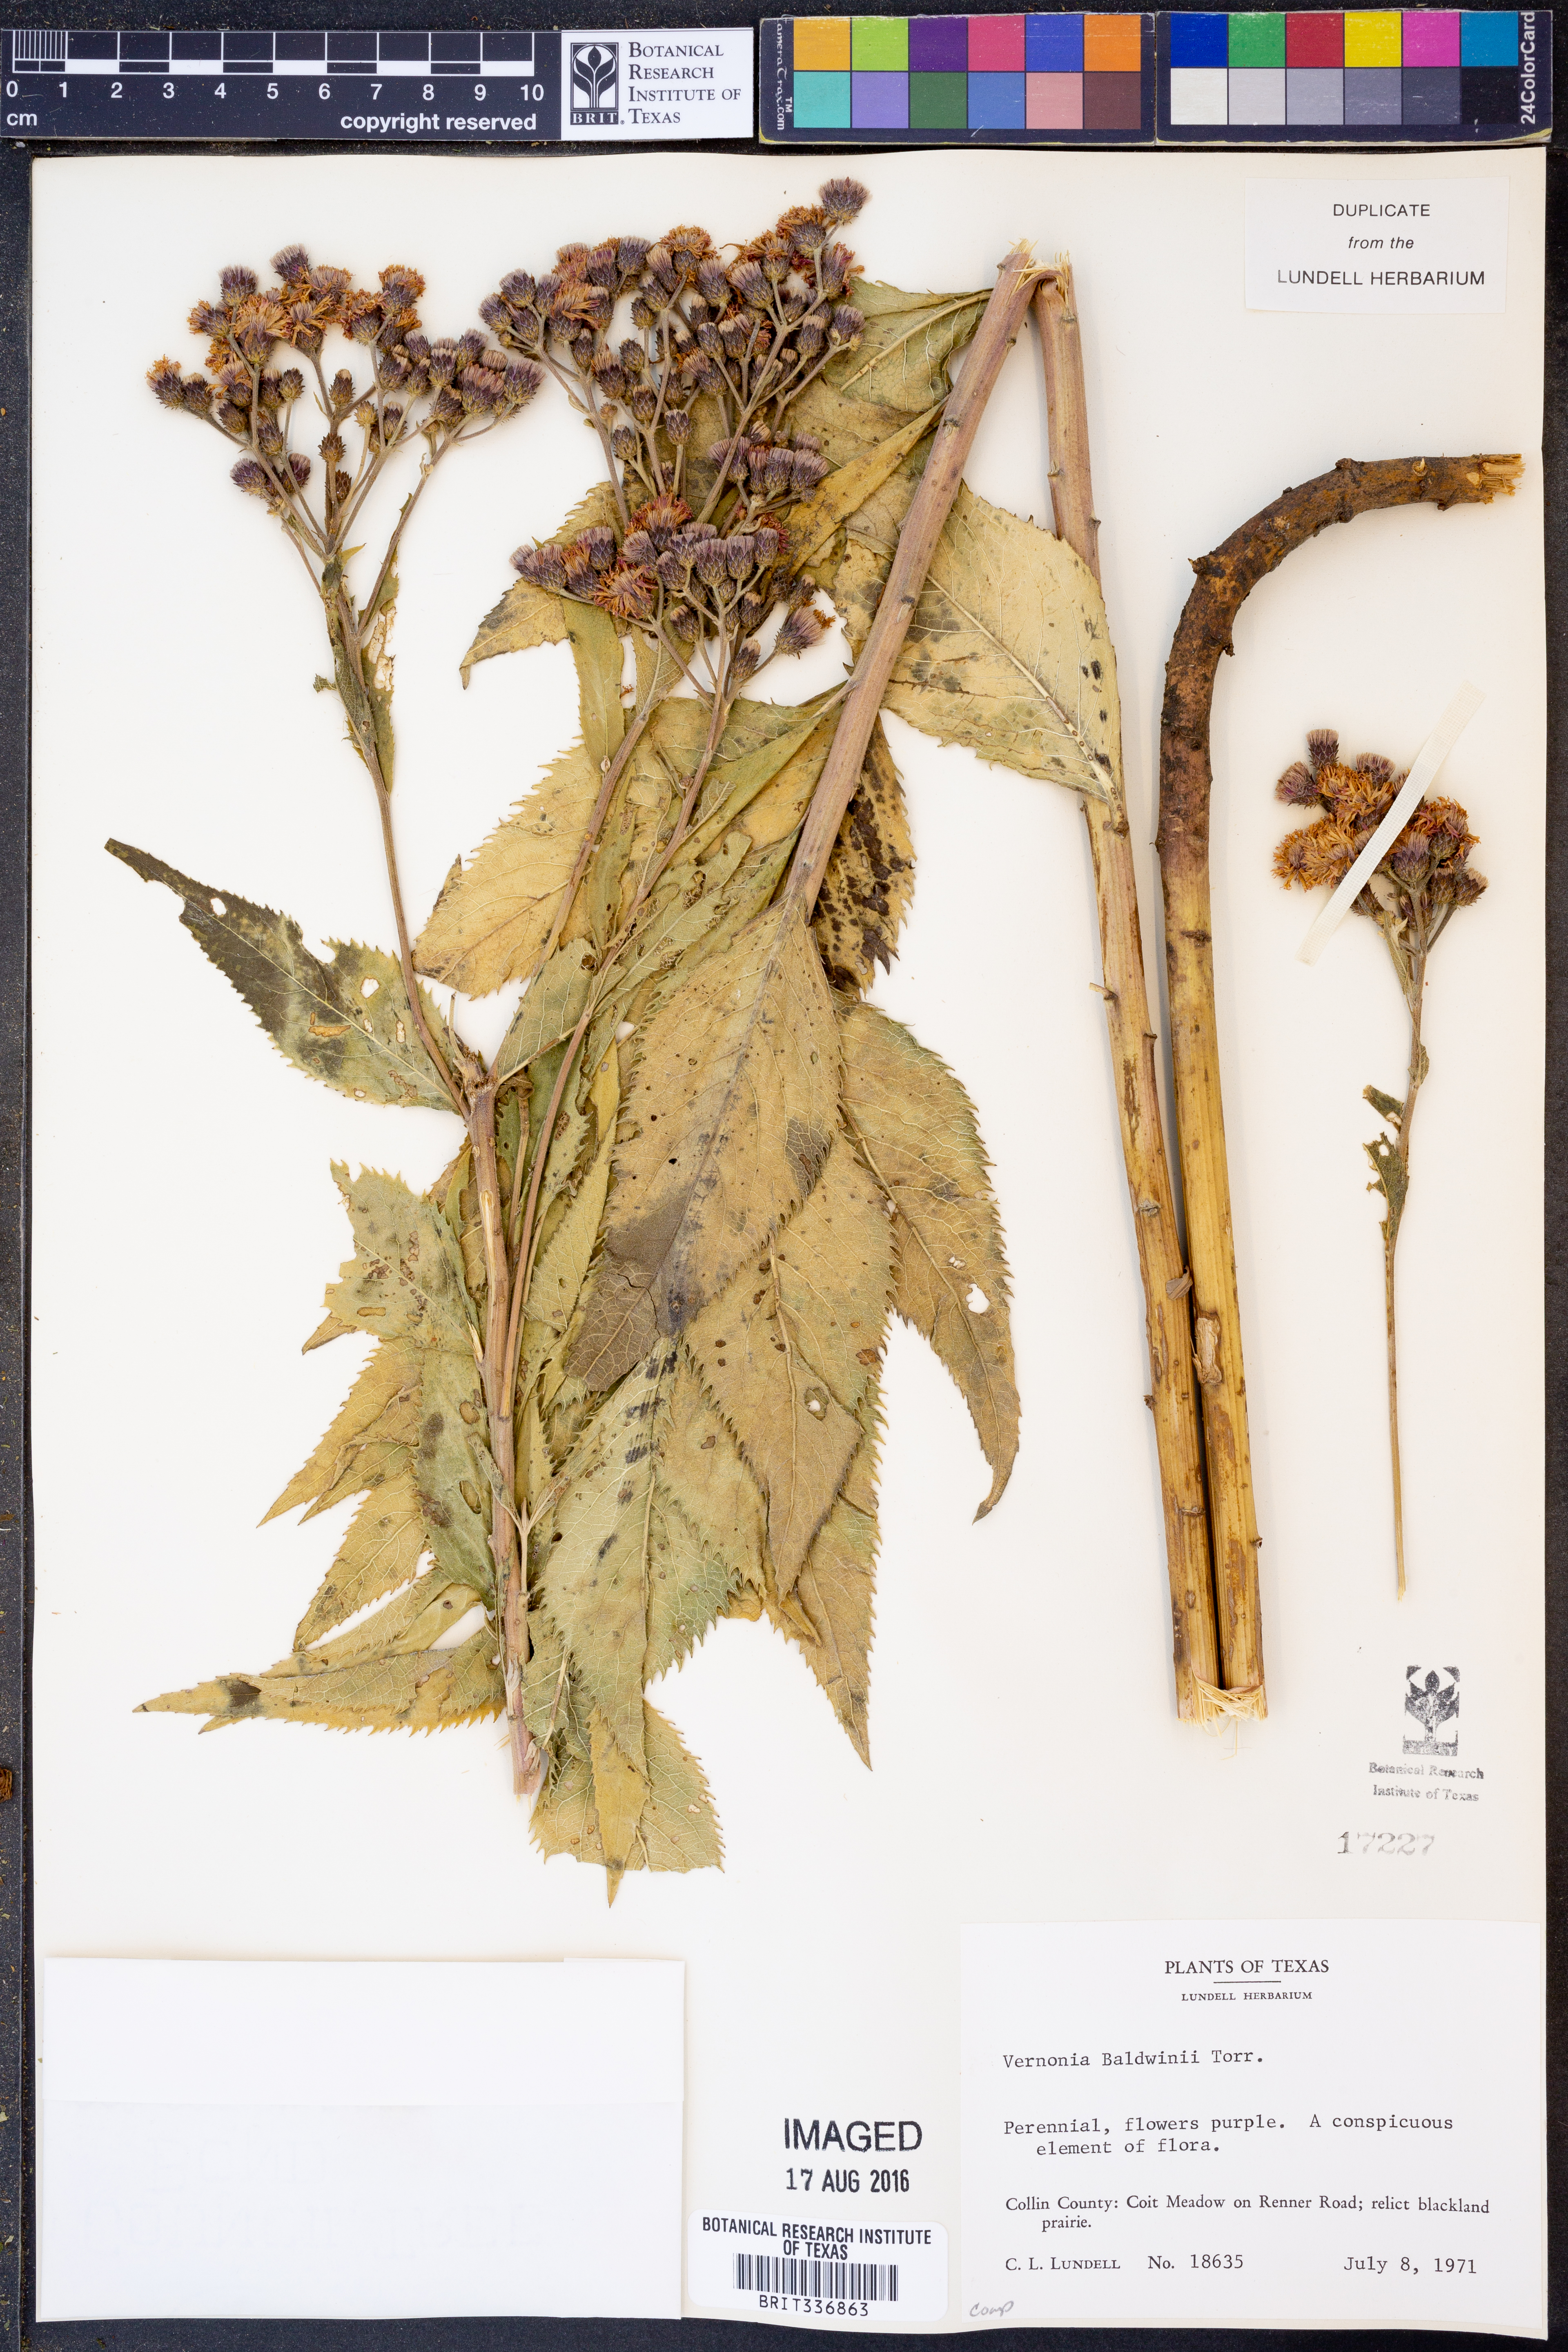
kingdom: Plantae
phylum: Tracheophyta
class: Magnoliopsida
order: Asterales
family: Asteraceae
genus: Vernonia
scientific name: Vernonia baldwinii
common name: Western ironweed
